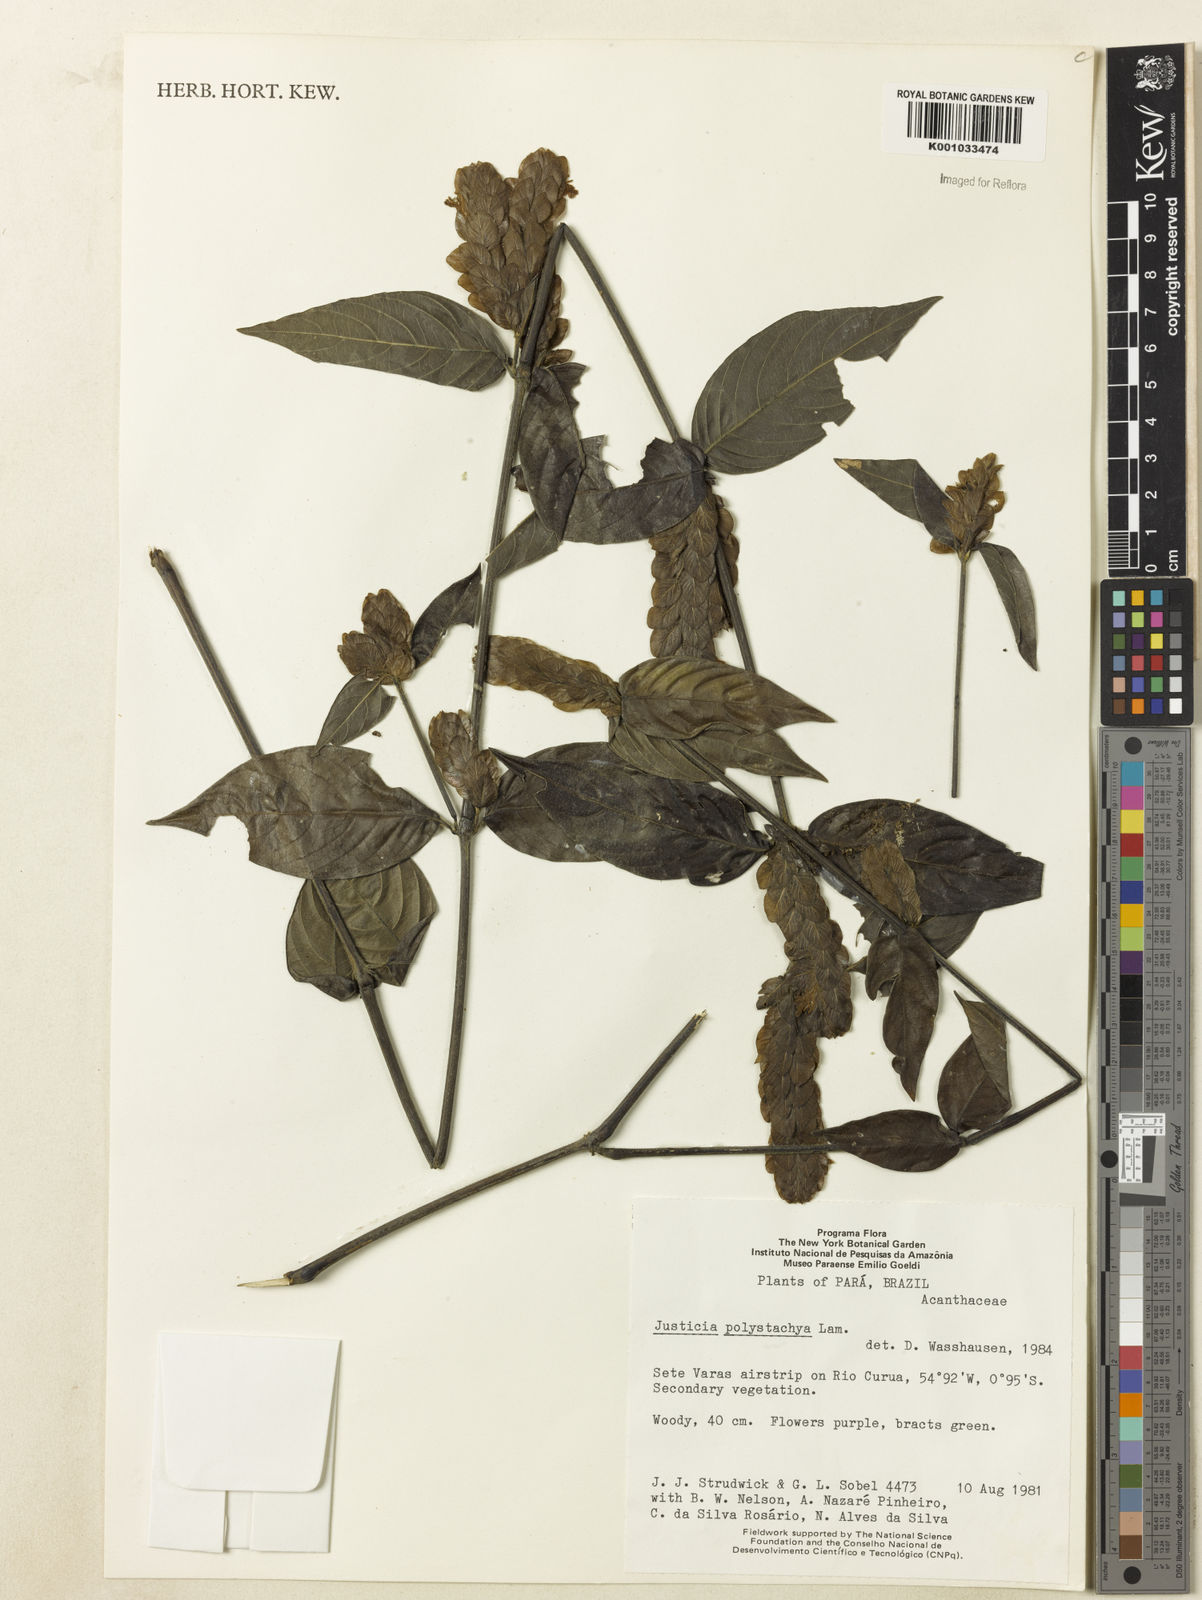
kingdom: Plantae
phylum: Tracheophyta
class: Magnoliopsida
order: Lamiales
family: Acanthaceae
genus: Justicia
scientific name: Justicia polystachya
